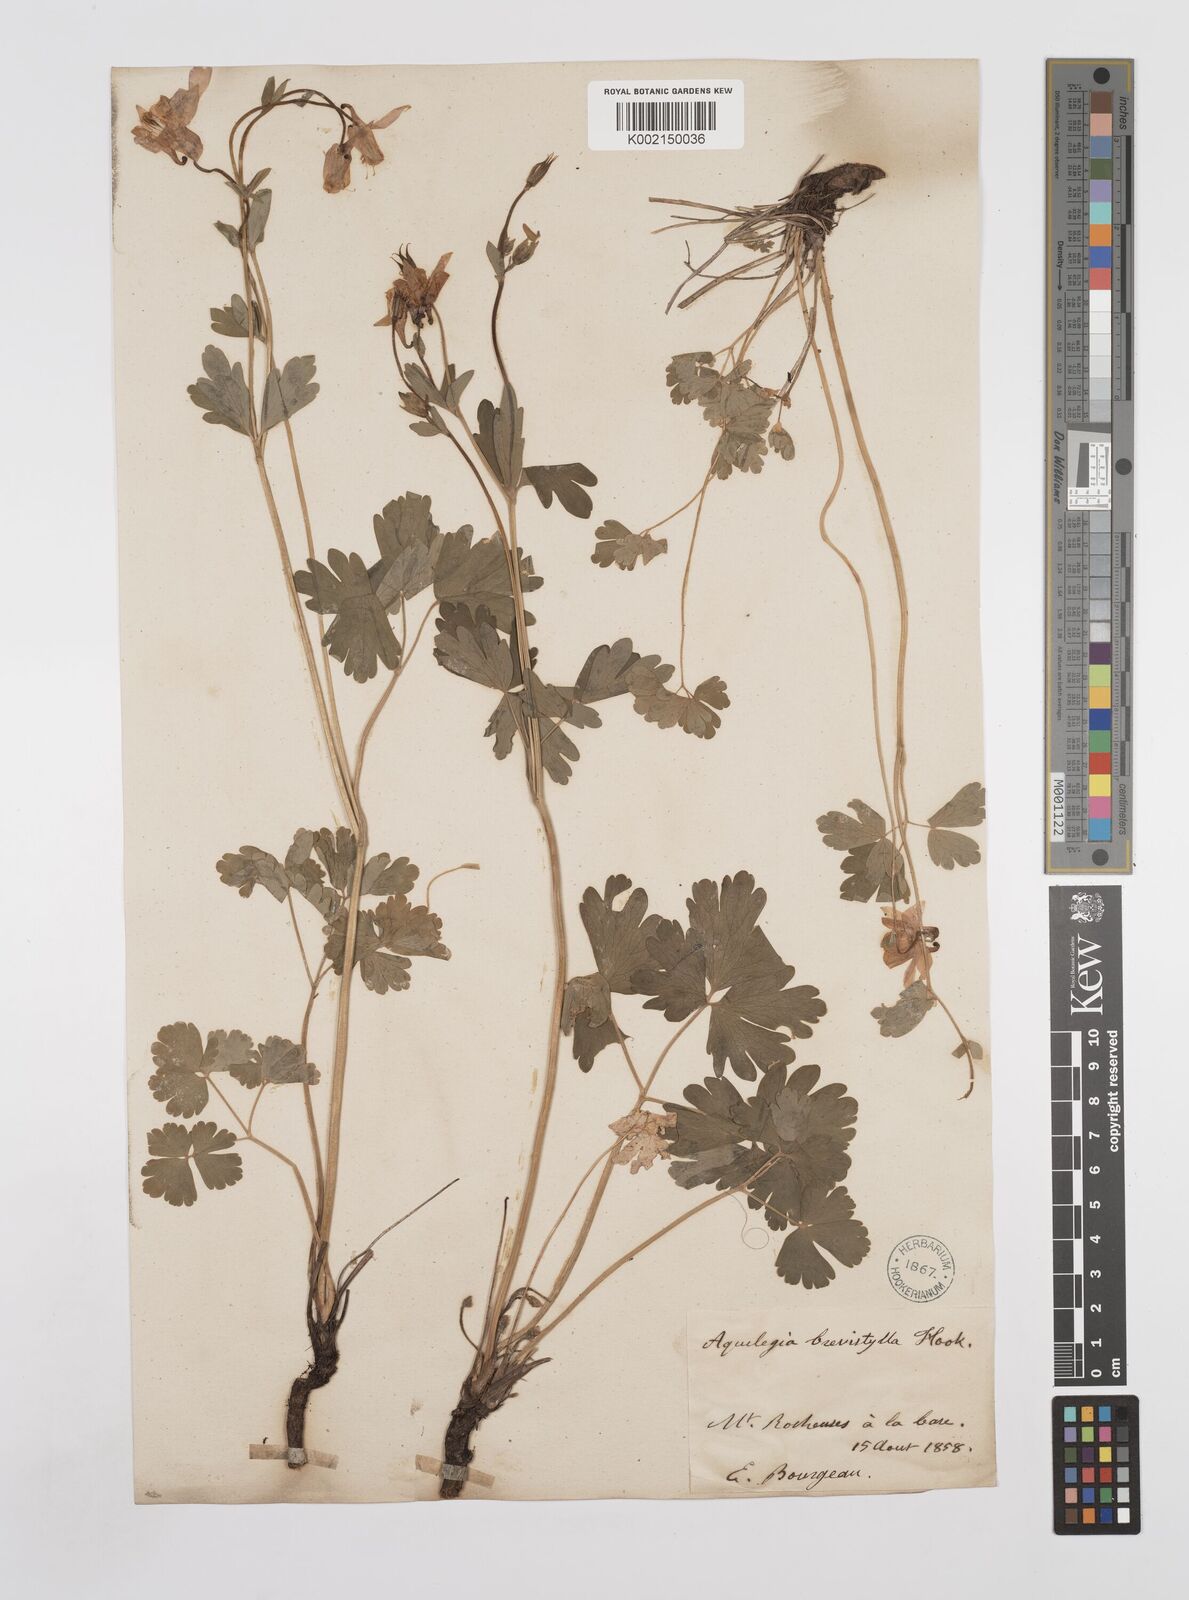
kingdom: Plantae
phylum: Tracheophyta
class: Magnoliopsida
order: Ranunculales
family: Ranunculaceae
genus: Aquilegia
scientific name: Aquilegia brevistyla
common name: Yukon columbine
